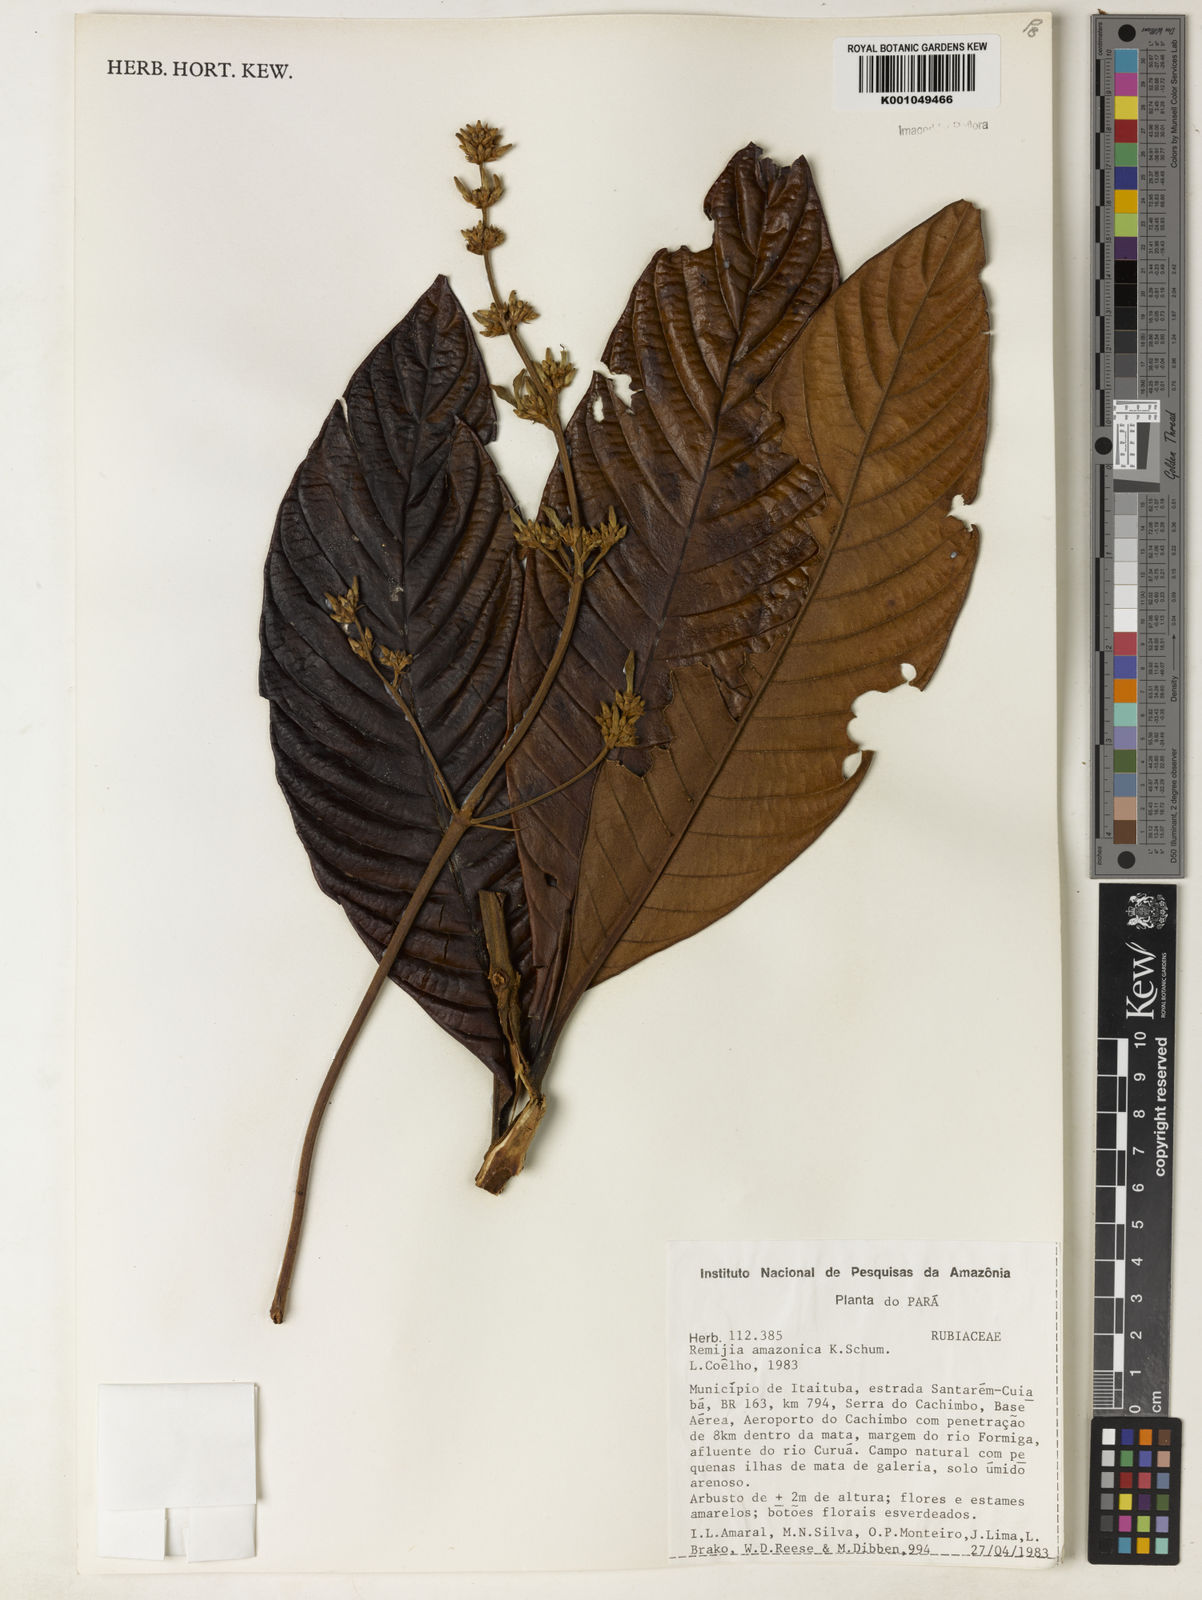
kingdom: Plantae
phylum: Tracheophyta
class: Magnoliopsida
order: Gentianales
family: Rubiaceae
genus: Remijia
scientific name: Remijia amazonica
